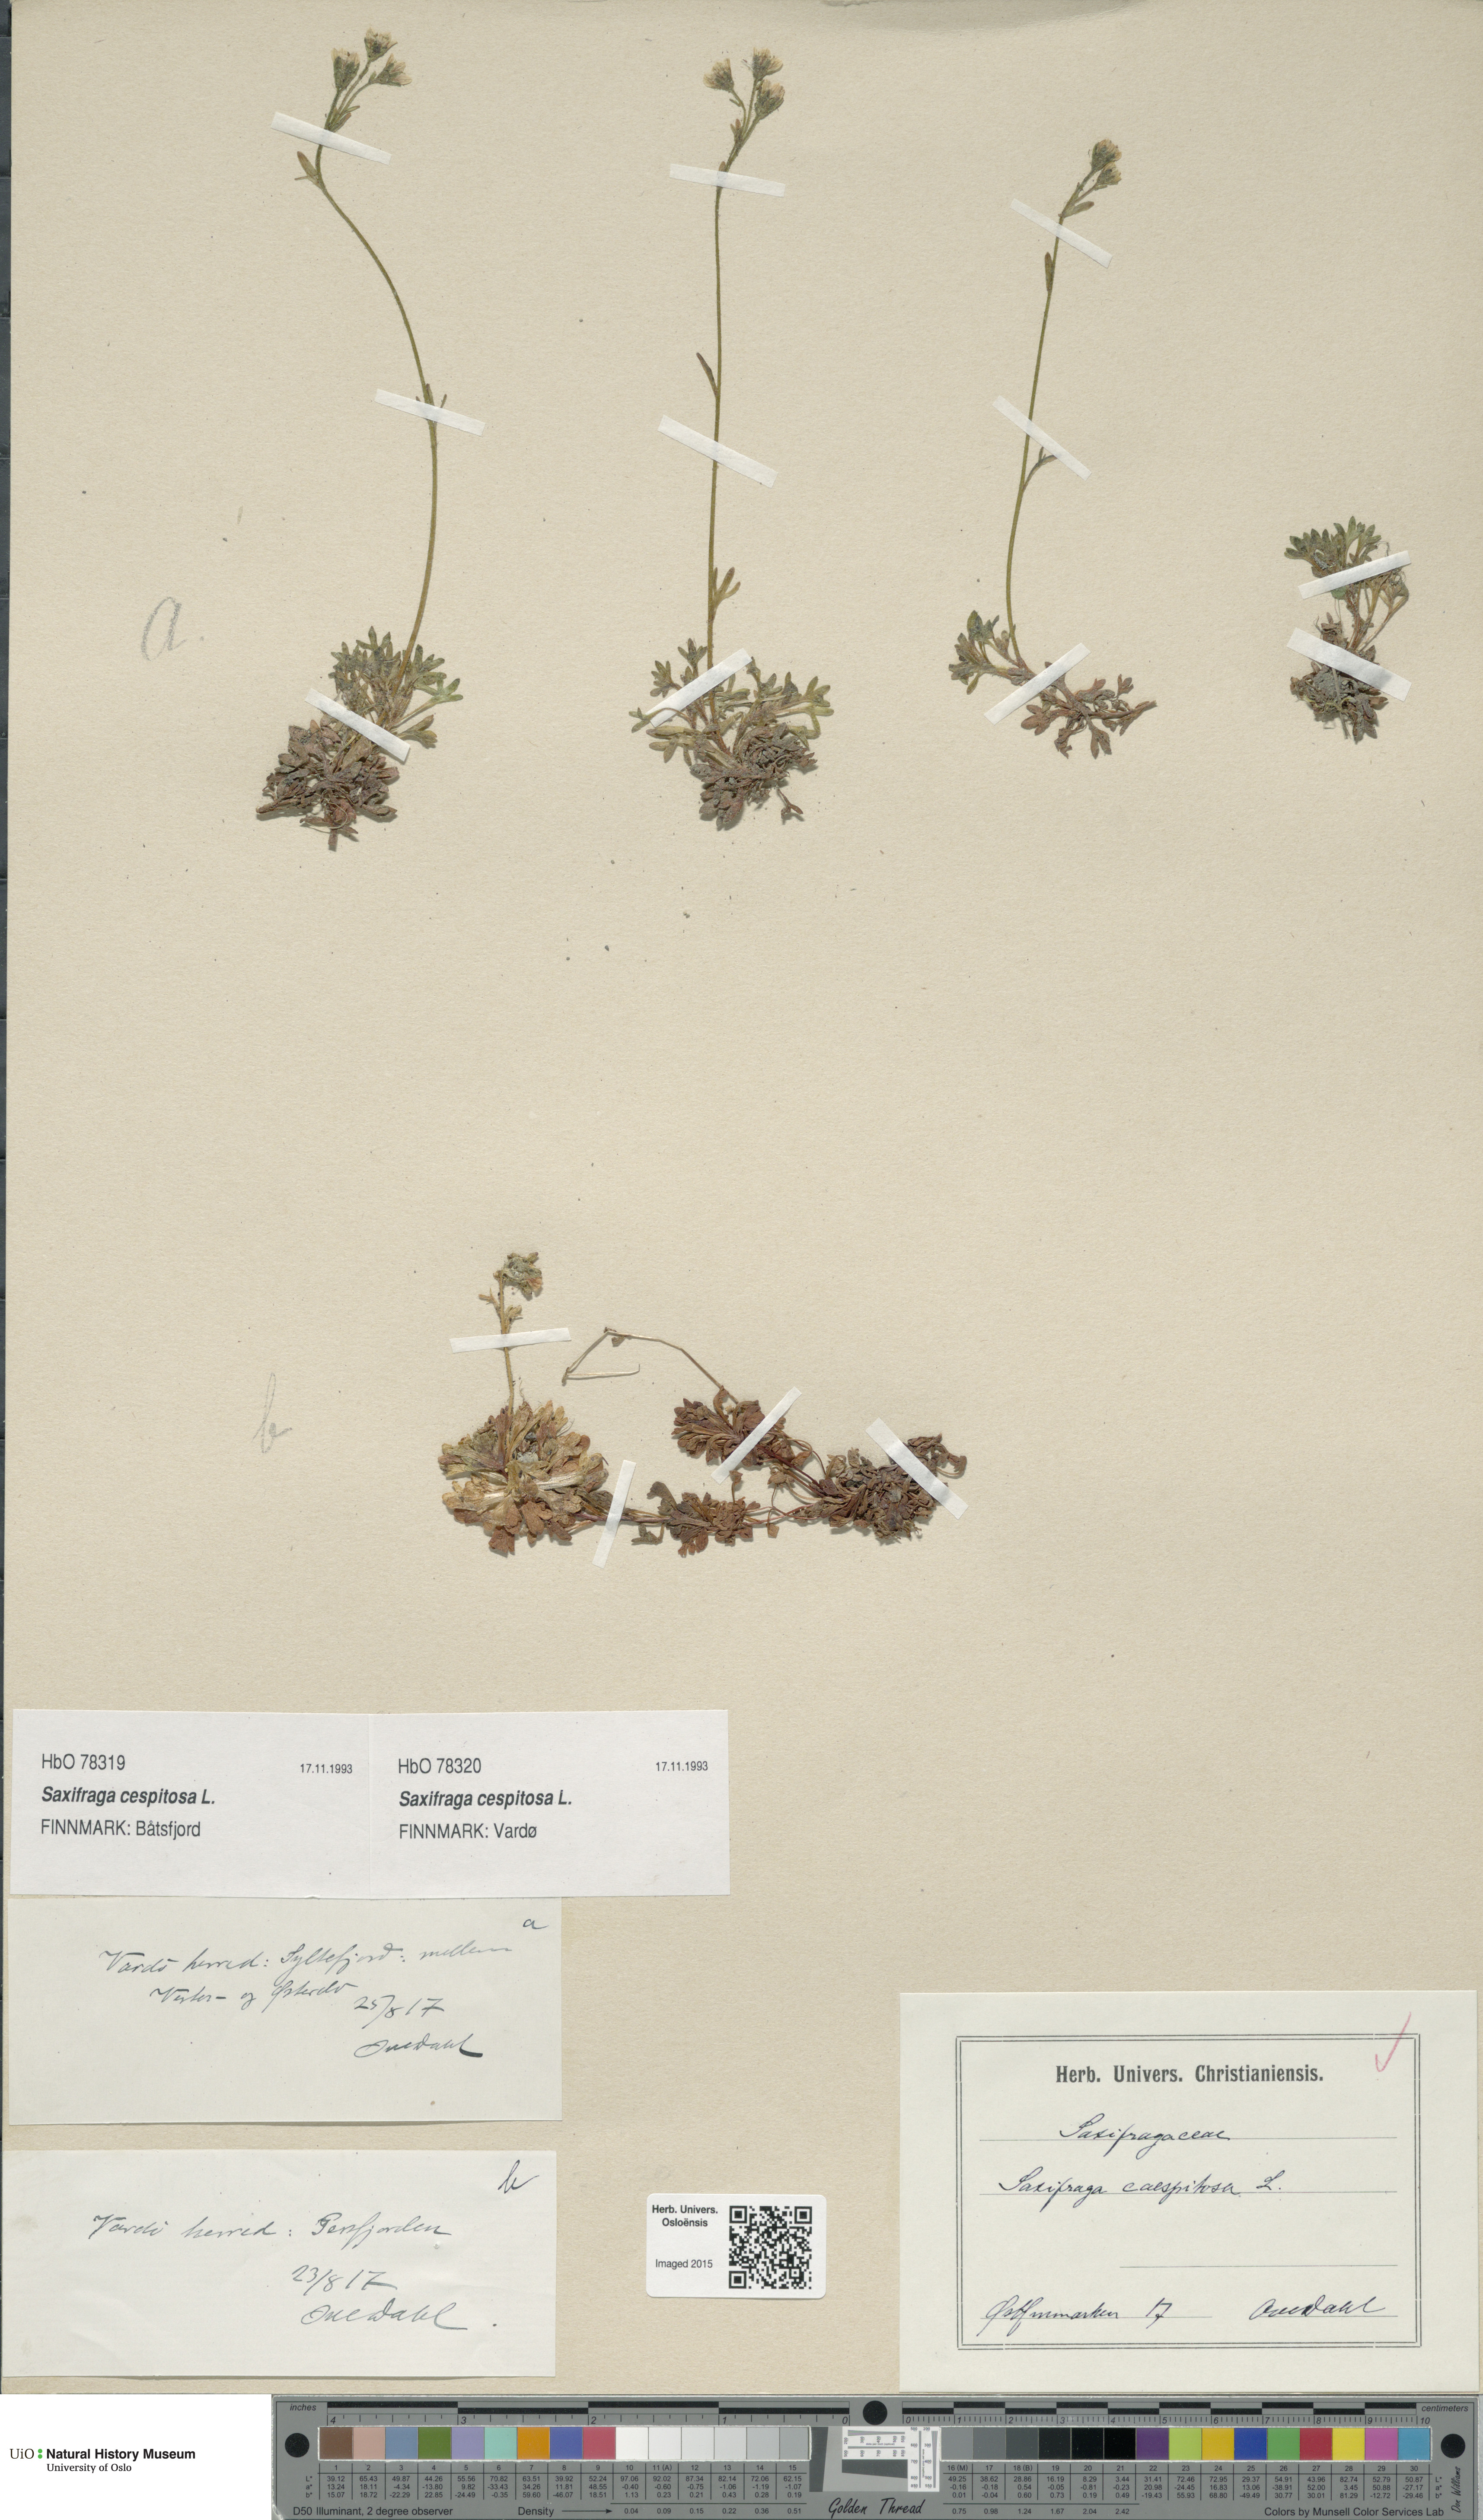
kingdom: Plantae
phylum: Tracheophyta
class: Magnoliopsida
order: Saxifragales
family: Saxifragaceae
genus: Saxifraga
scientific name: Saxifraga cespitosa
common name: Tufted saxifrage
